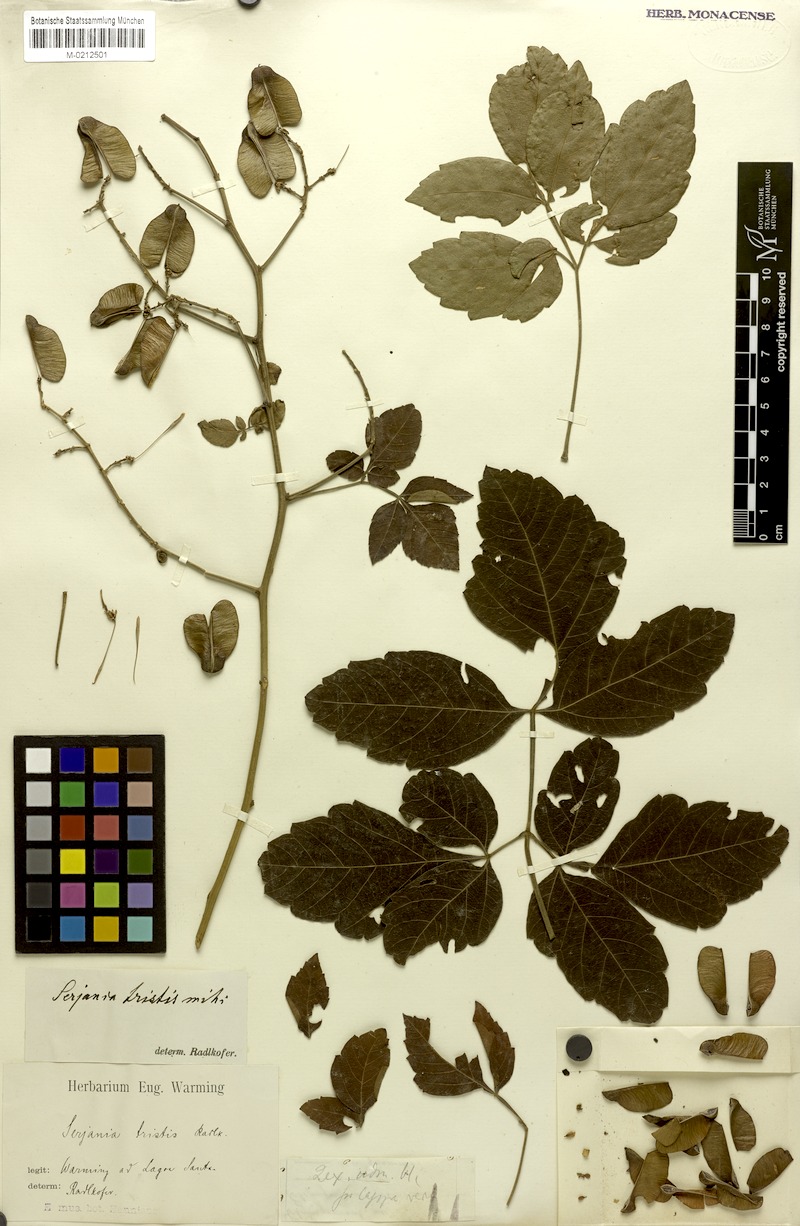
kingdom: Plantae
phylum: Tracheophyta
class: Magnoliopsida
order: Sapindales
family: Sapindaceae
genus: Serjania
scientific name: Serjania tristis
